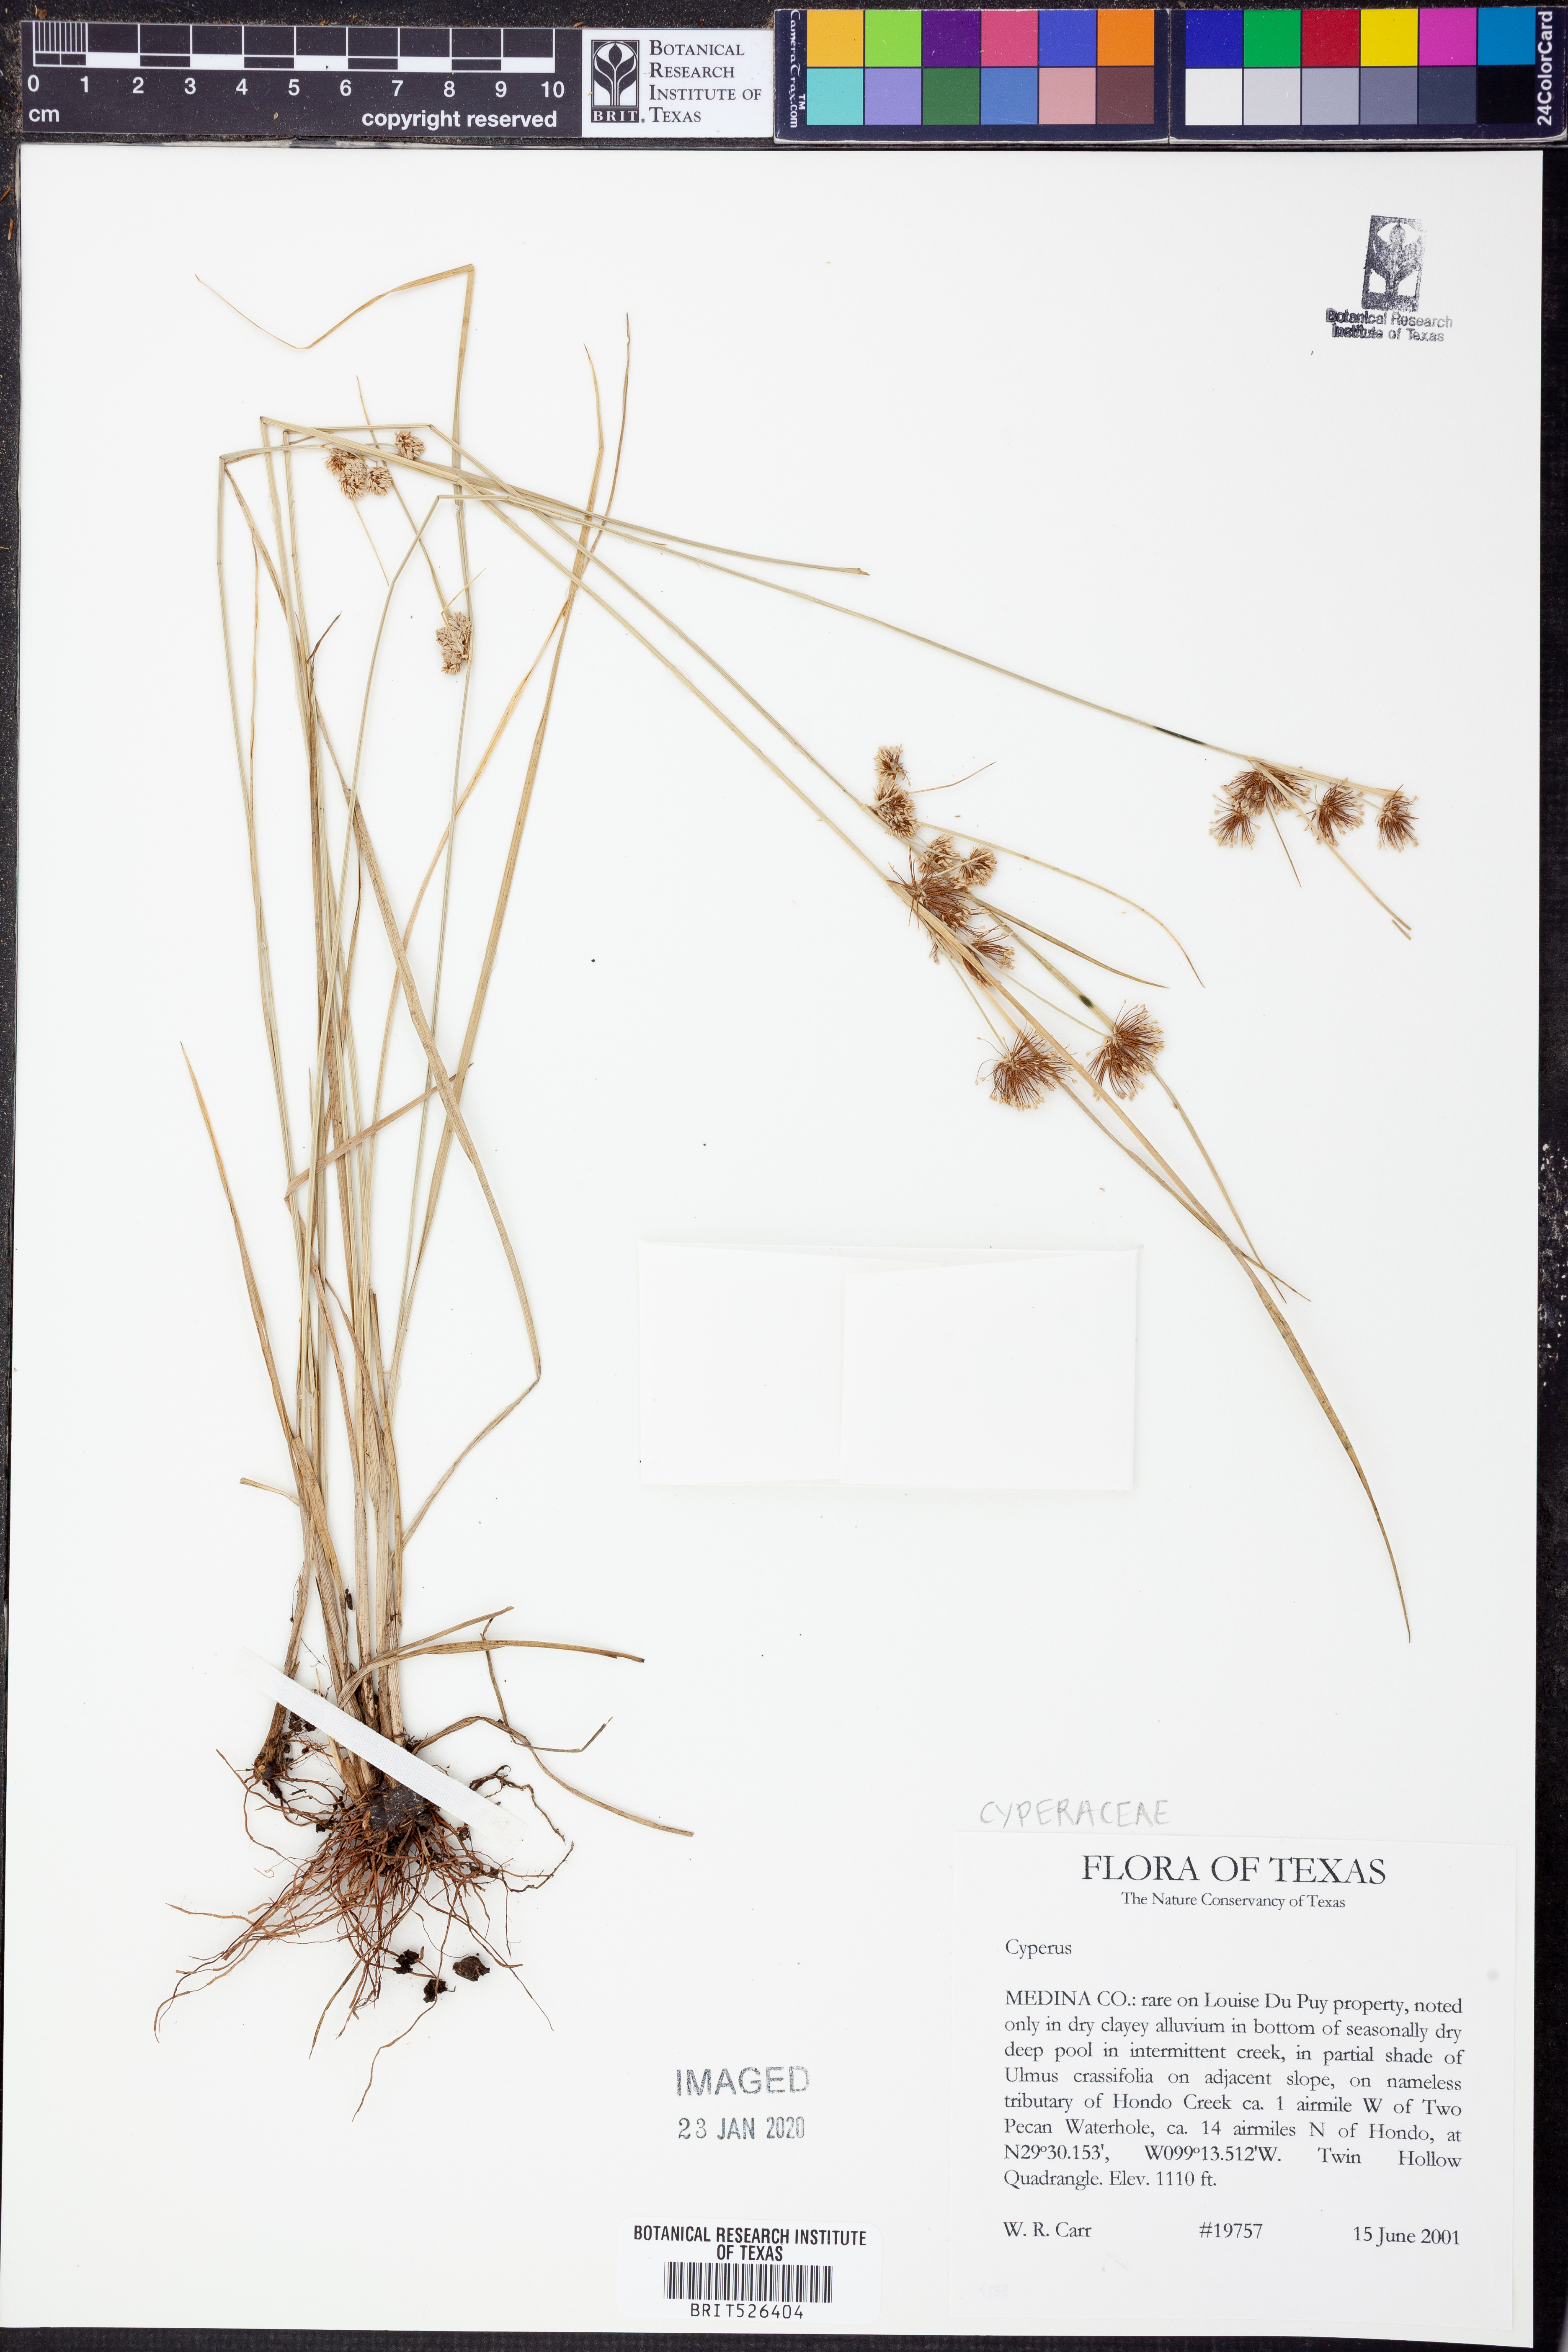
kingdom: Plantae
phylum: Tracheophyta
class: Liliopsida
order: Poales
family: Cyperaceae
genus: Cyperus
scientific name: Cyperus
